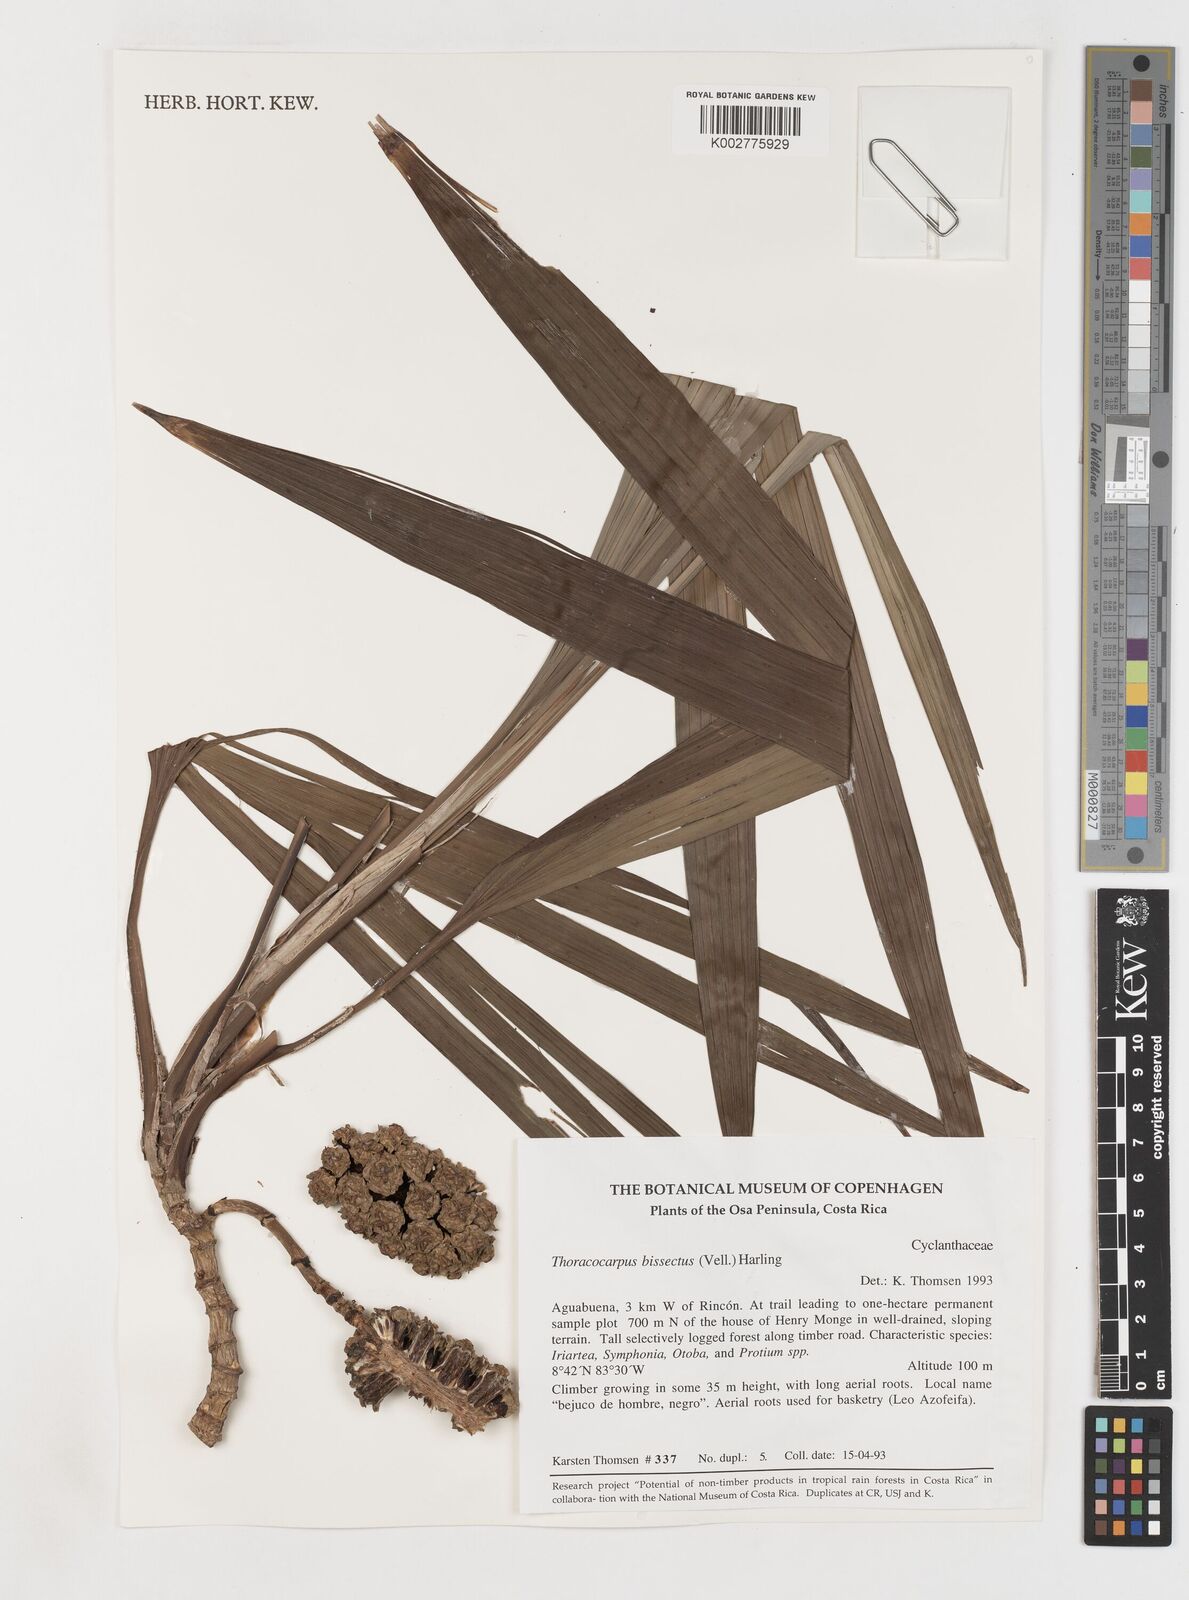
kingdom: Plantae
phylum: Tracheophyta
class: Liliopsida
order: Pandanales
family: Cyclanthaceae
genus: Thoracocarpus
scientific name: Thoracocarpus bissectus
